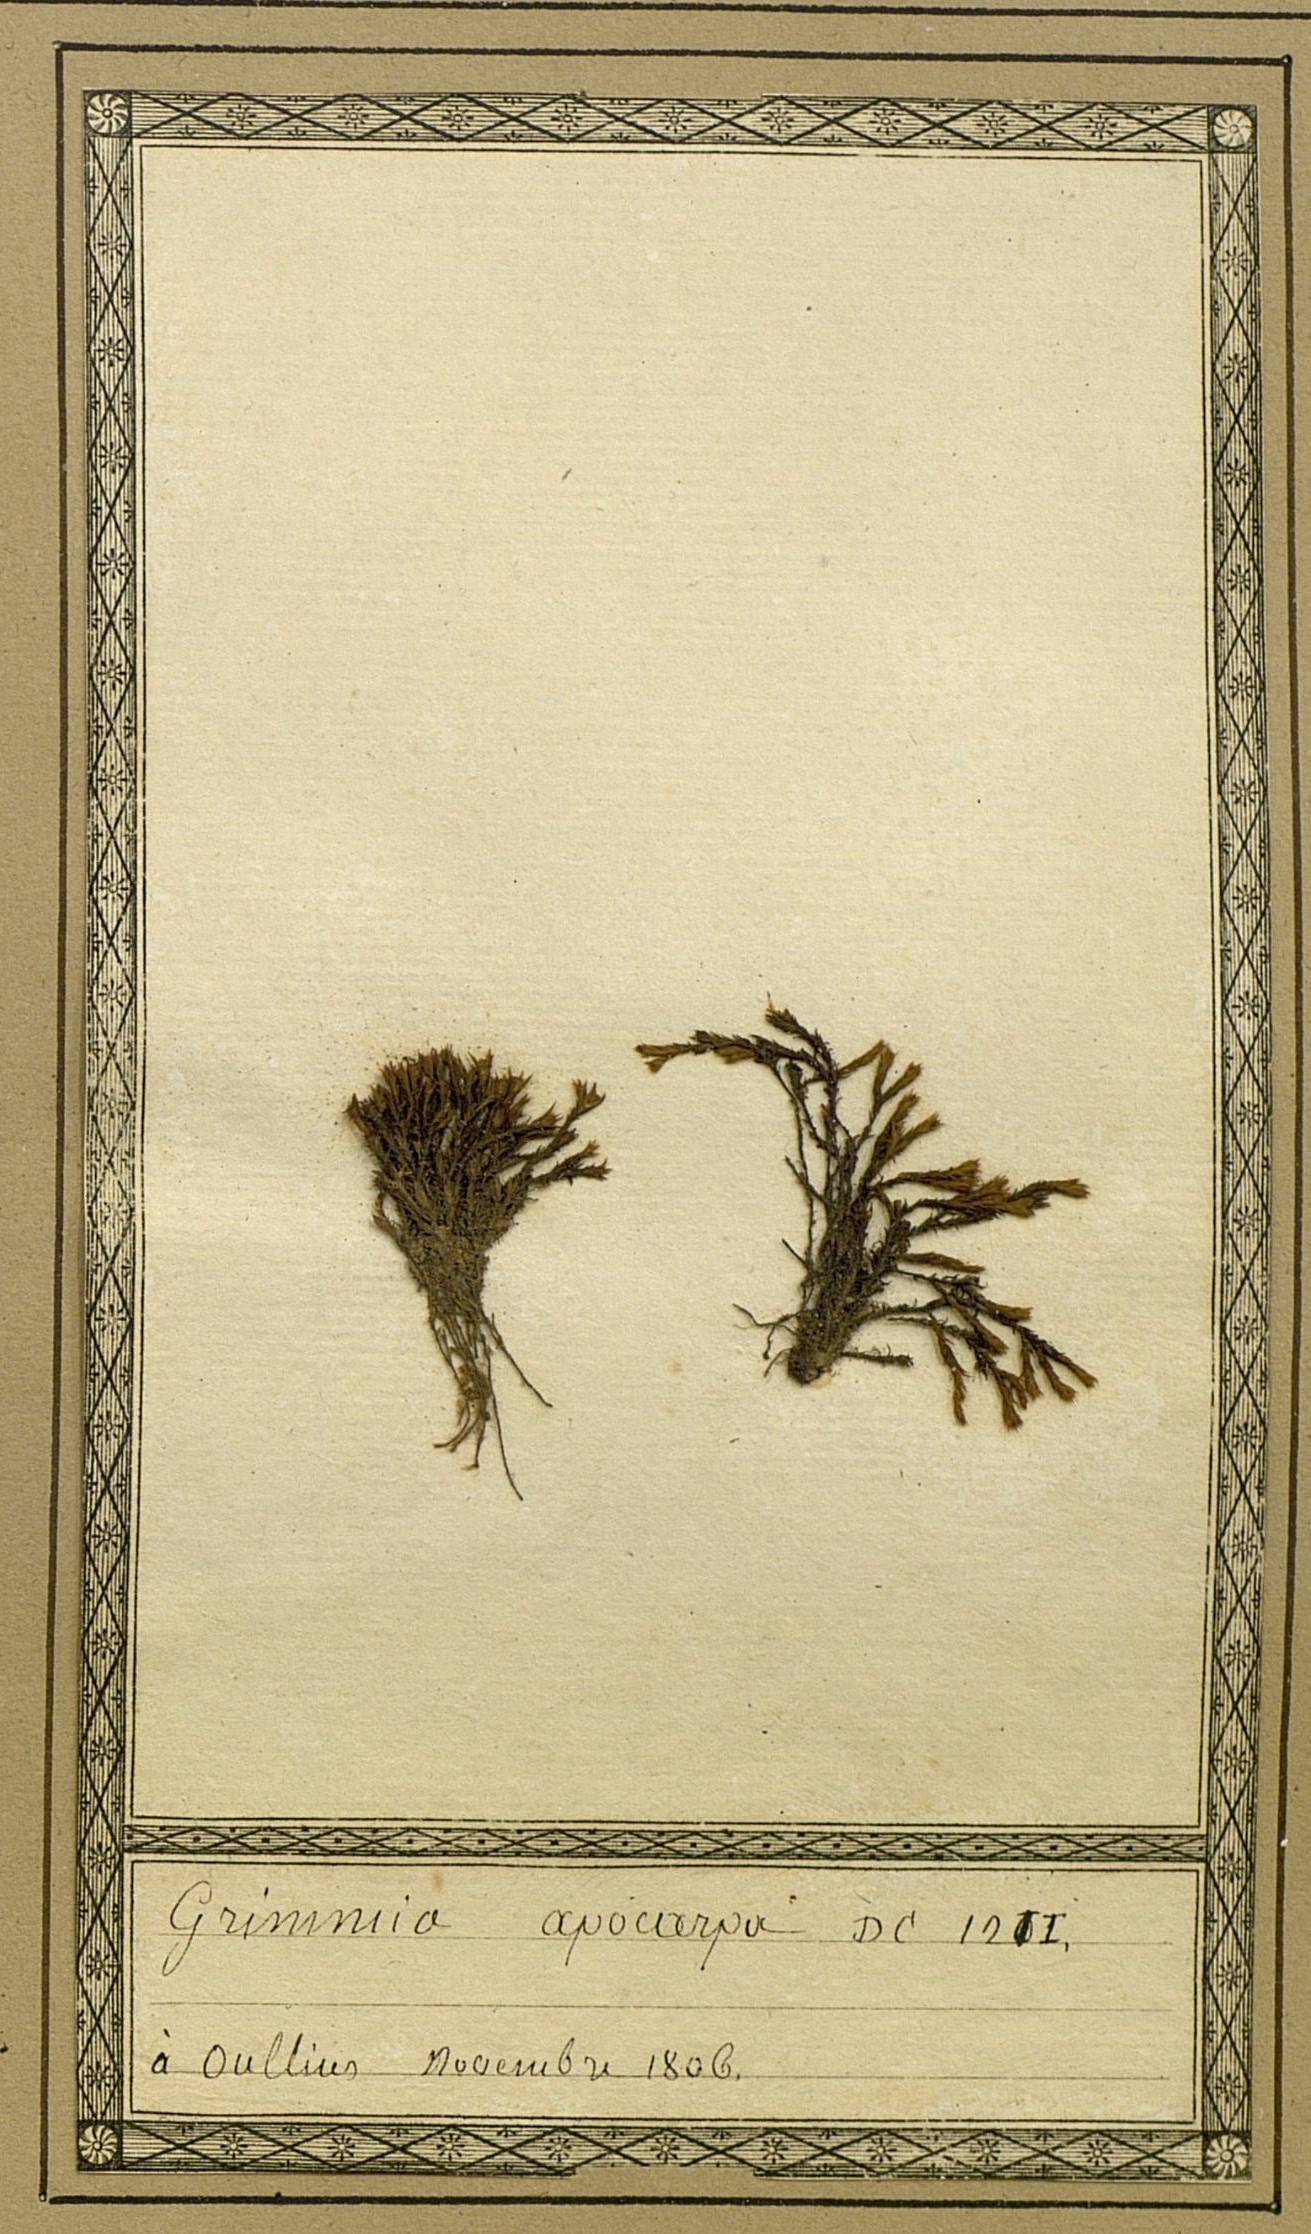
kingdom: Plantae
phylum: Bryophyta
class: Bryopsida
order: Grimmiales
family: Grimmiaceae
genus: Schistidium
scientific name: Schistidium apocarpum
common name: Radiate bloom moss
